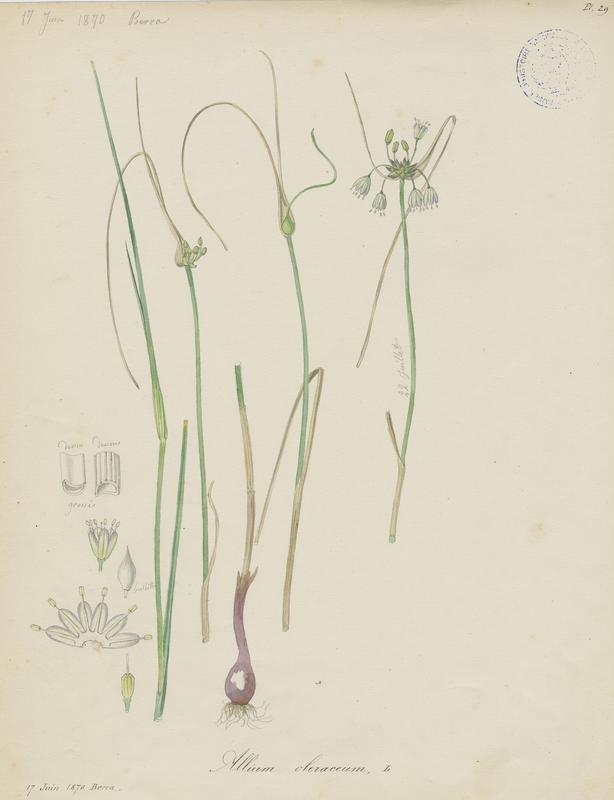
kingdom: Plantae
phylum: Tracheophyta
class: Liliopsida
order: Asparagales
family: Amaryllidaceae
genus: Allium
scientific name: Allium oleraceum
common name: Field garlic
